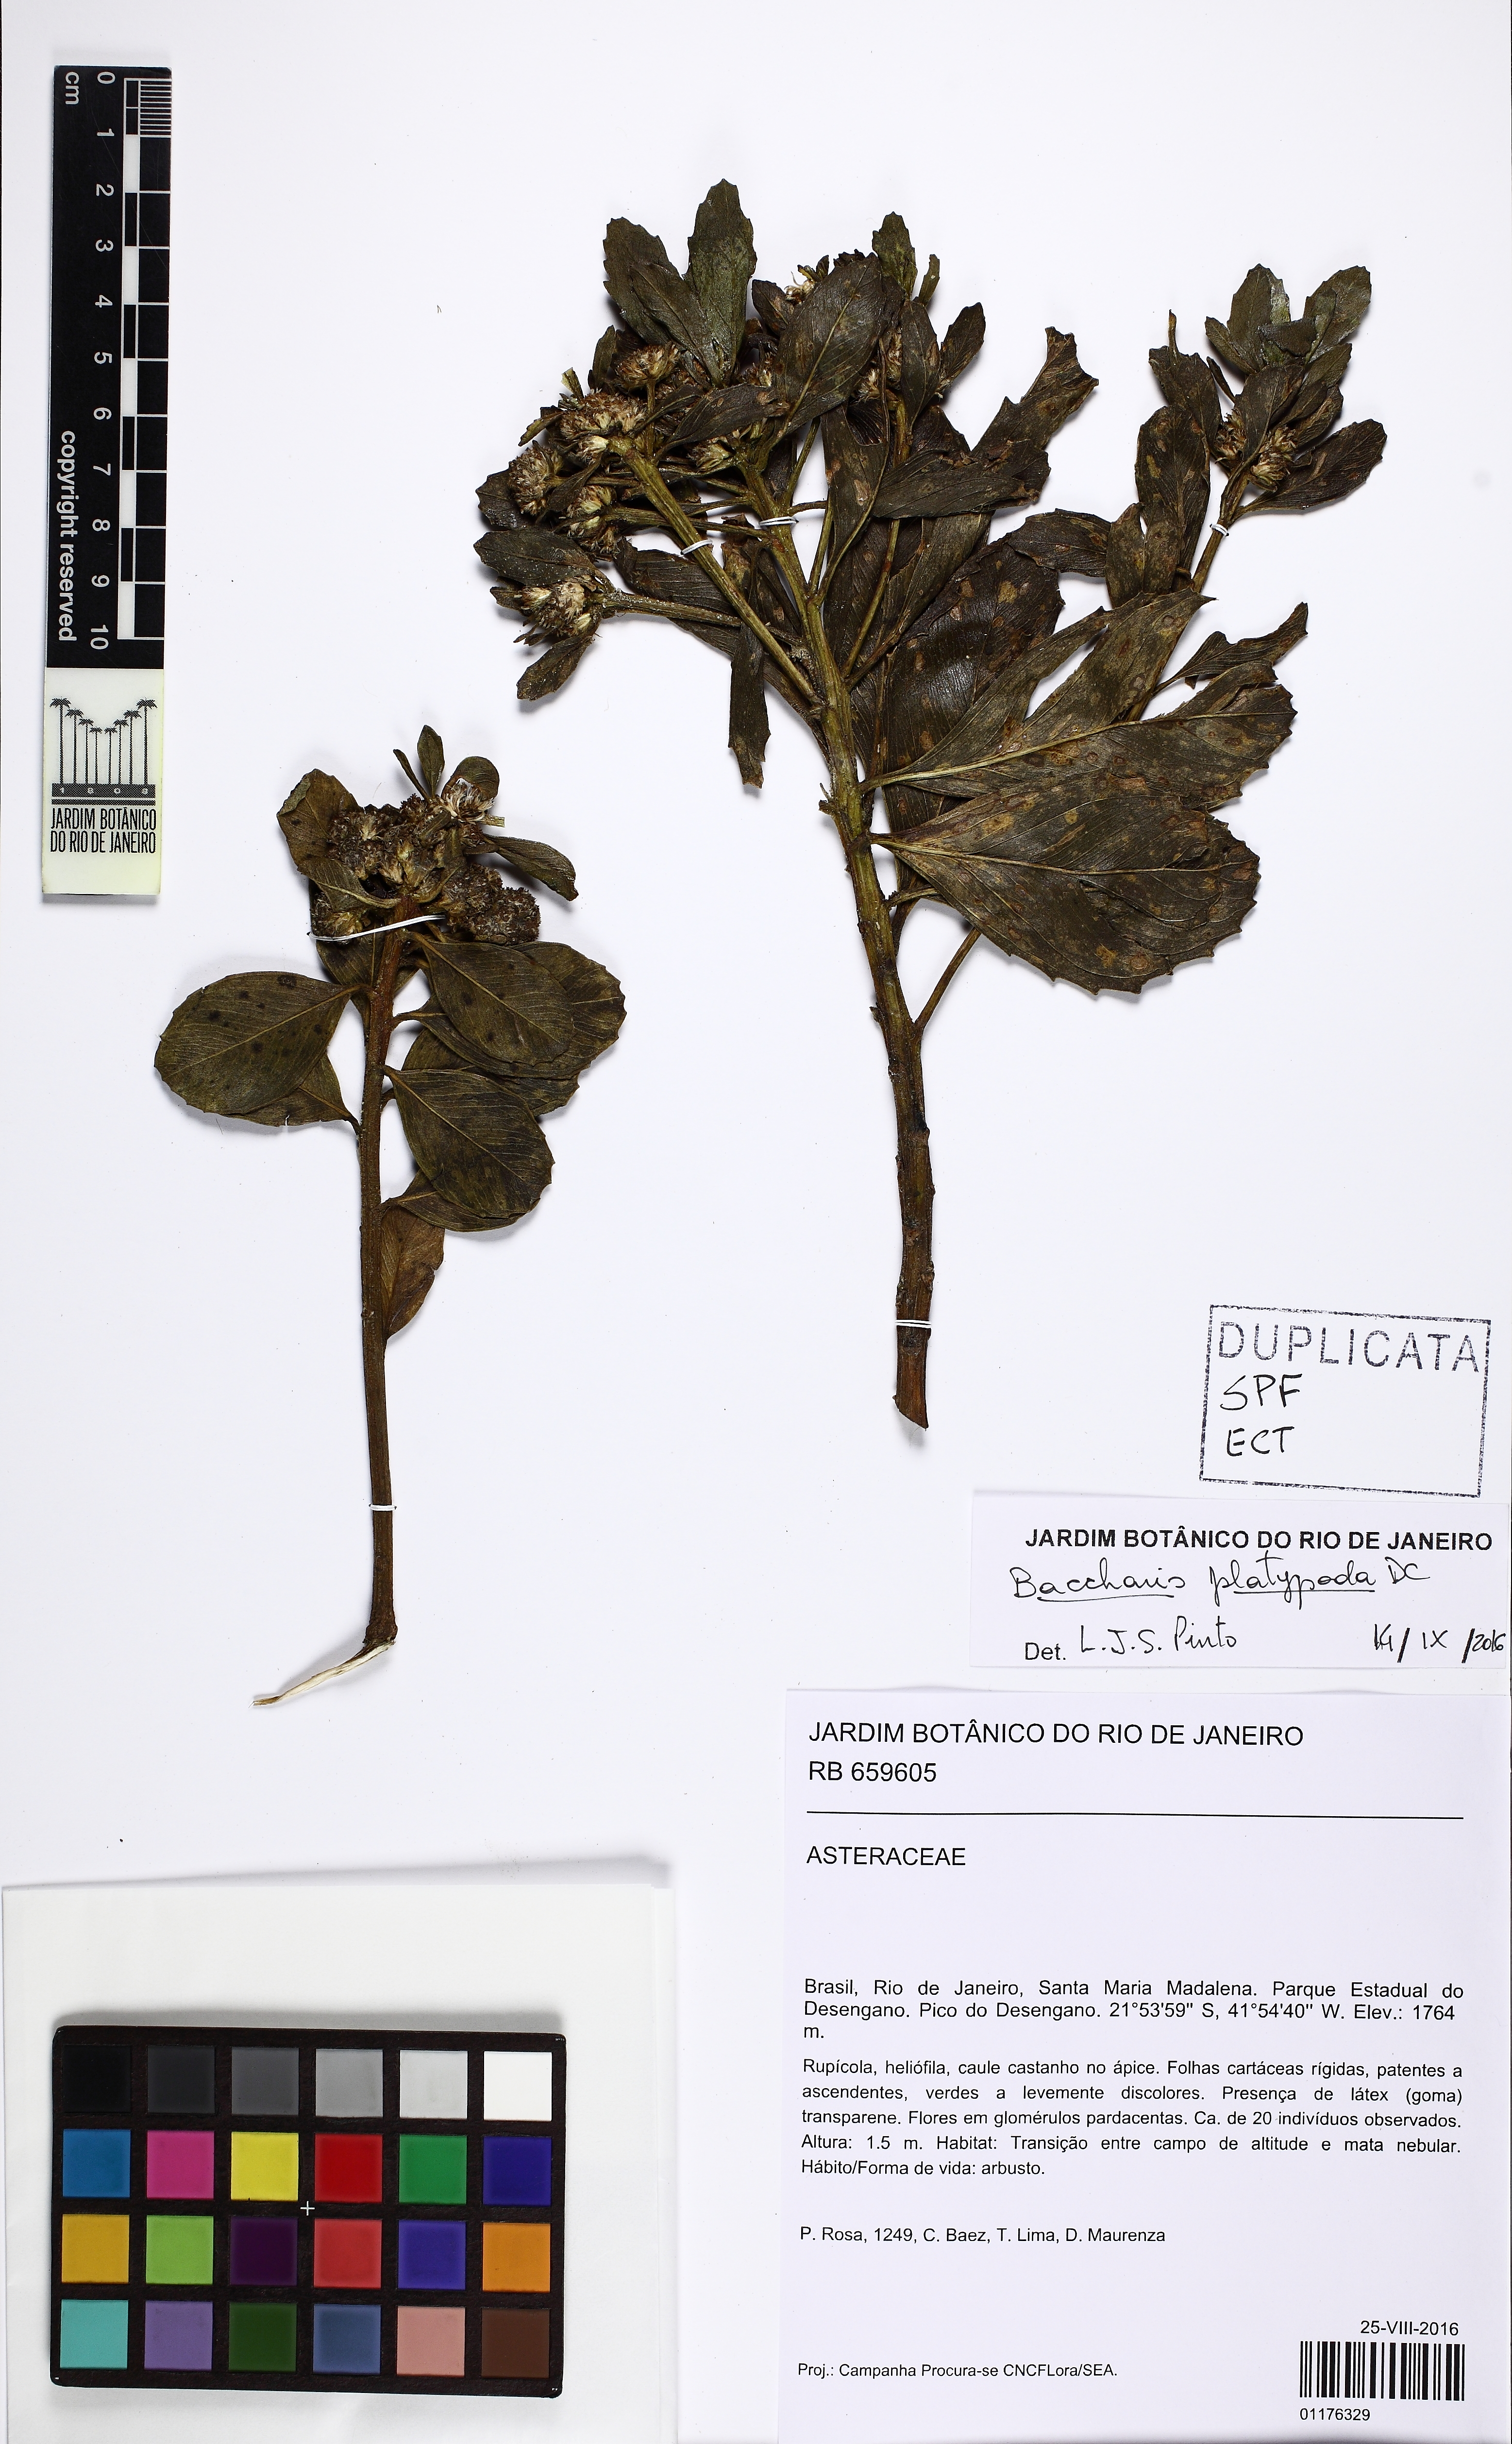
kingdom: Plantae
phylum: Tracheophyta
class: Magnoliopsida
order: Asterales
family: Asteraceae
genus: Baccharis
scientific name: Baccharis platypoda
